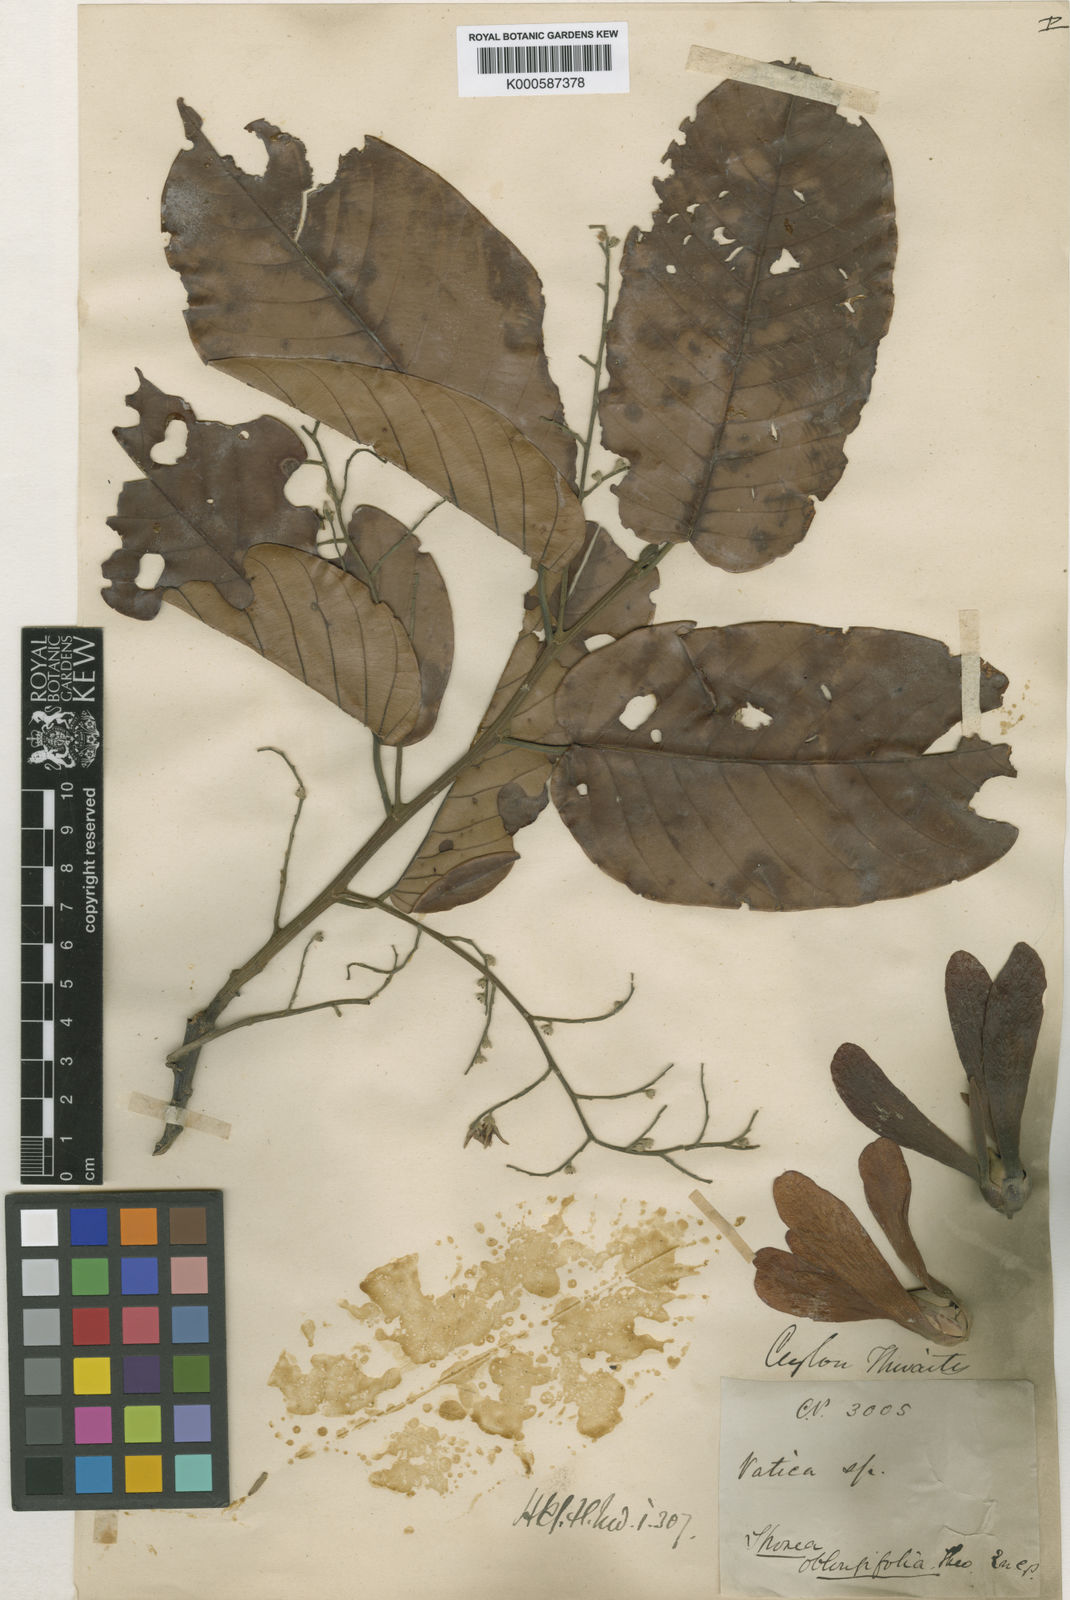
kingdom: Plantae
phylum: Tracheophyta
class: Magnoliopsida
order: Malvales
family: Dipterocarpaceae
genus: Shorea
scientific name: Shorea oblongifolia
